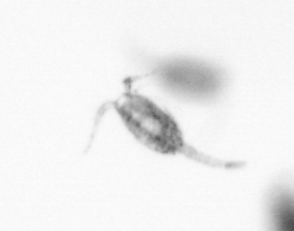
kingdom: Animalia
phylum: Arthropoda
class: Copepoda
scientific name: Copepoda
